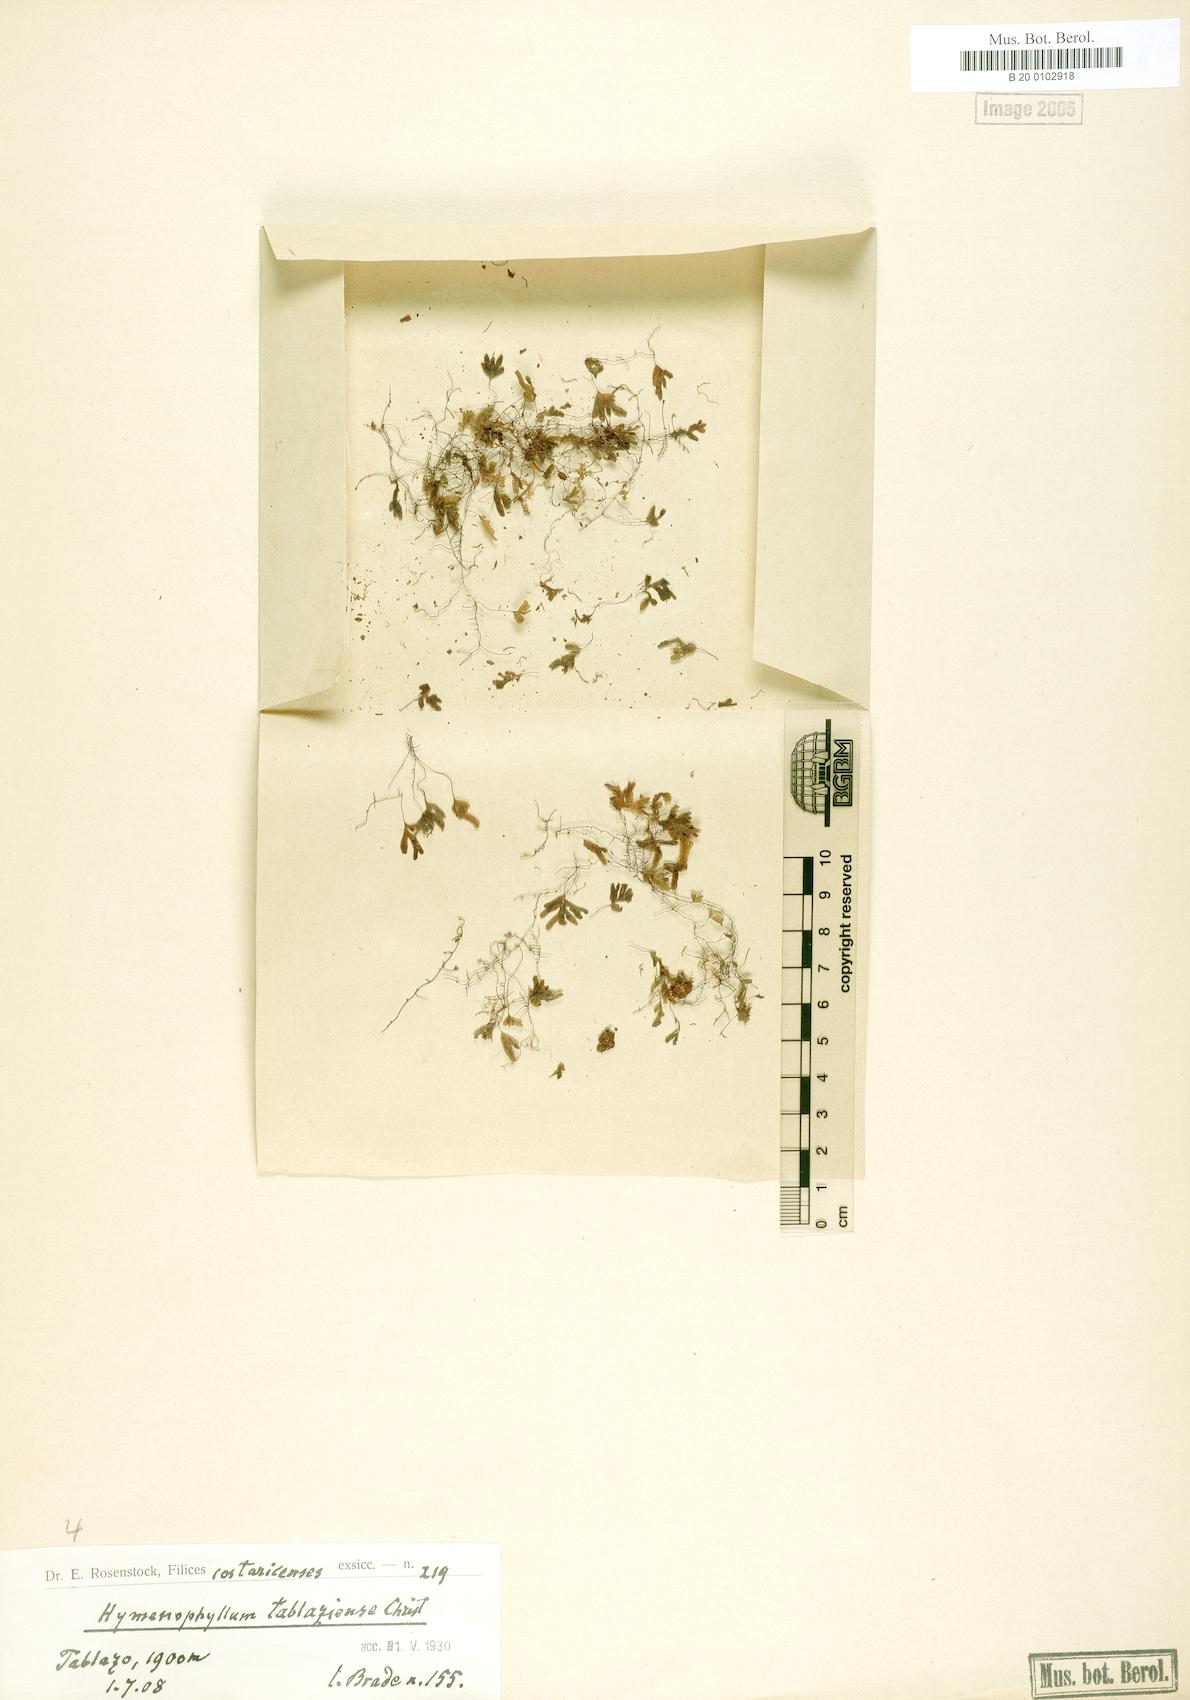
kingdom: Plantae
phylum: Tracheophyta
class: Polypodiopsida
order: Hymenophyllales
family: Hymenophyllaceae
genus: Hymenophyllum
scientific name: Hymenophyllum abruptum
